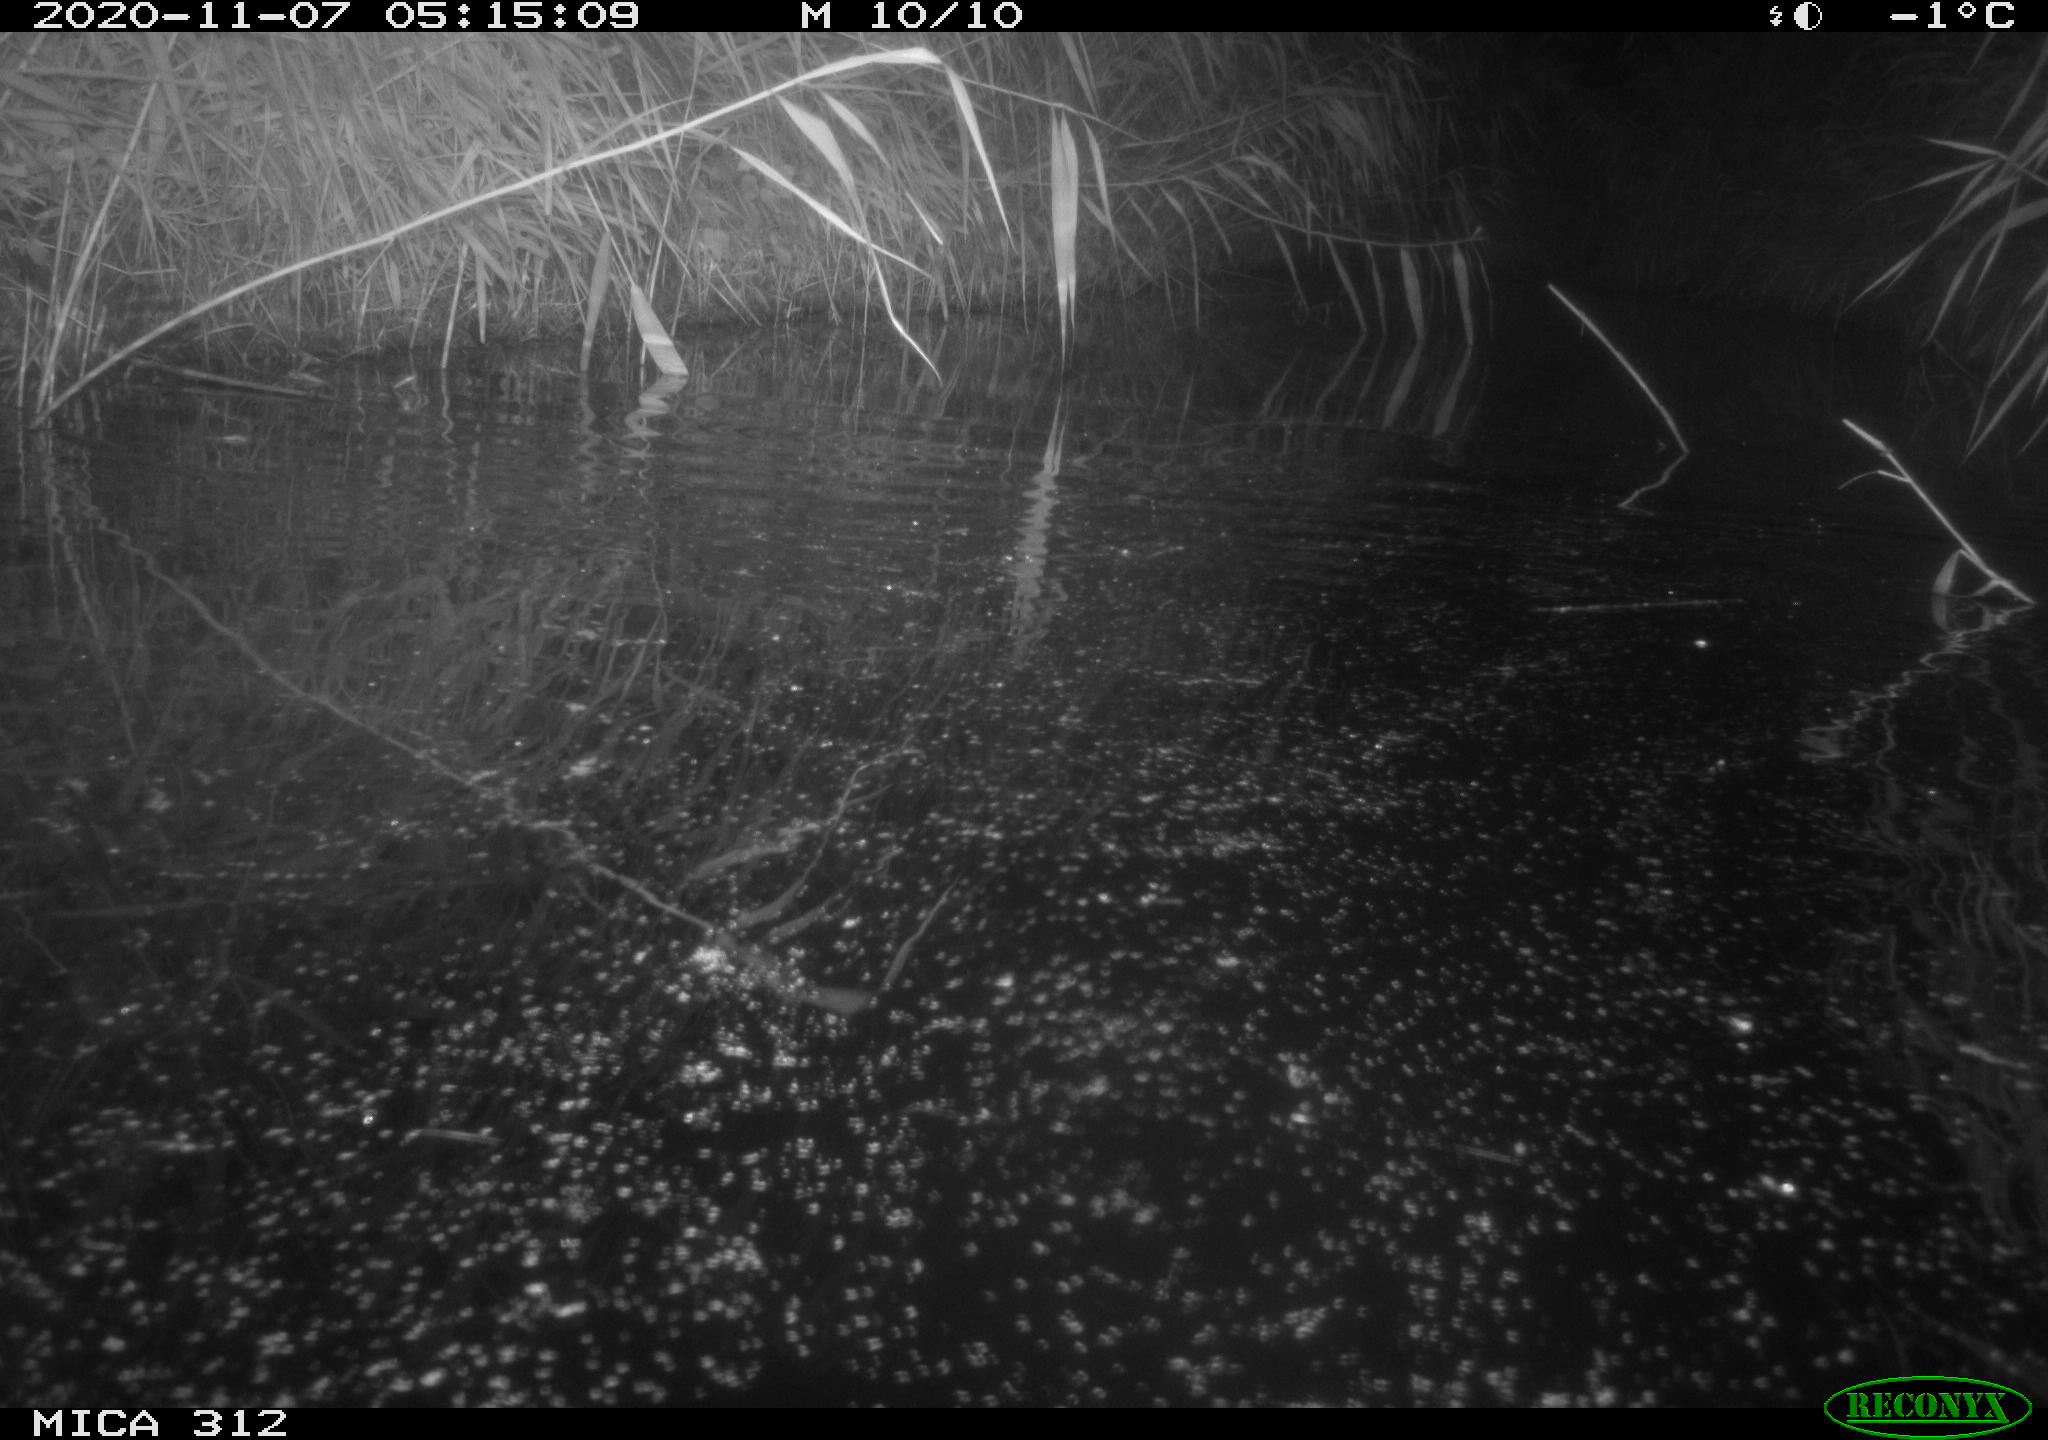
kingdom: Animalia
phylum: Chordata
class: Mammalia
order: Rodentia
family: Muridae
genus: Rattus
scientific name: Rattus norvegicus
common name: Brown rat
